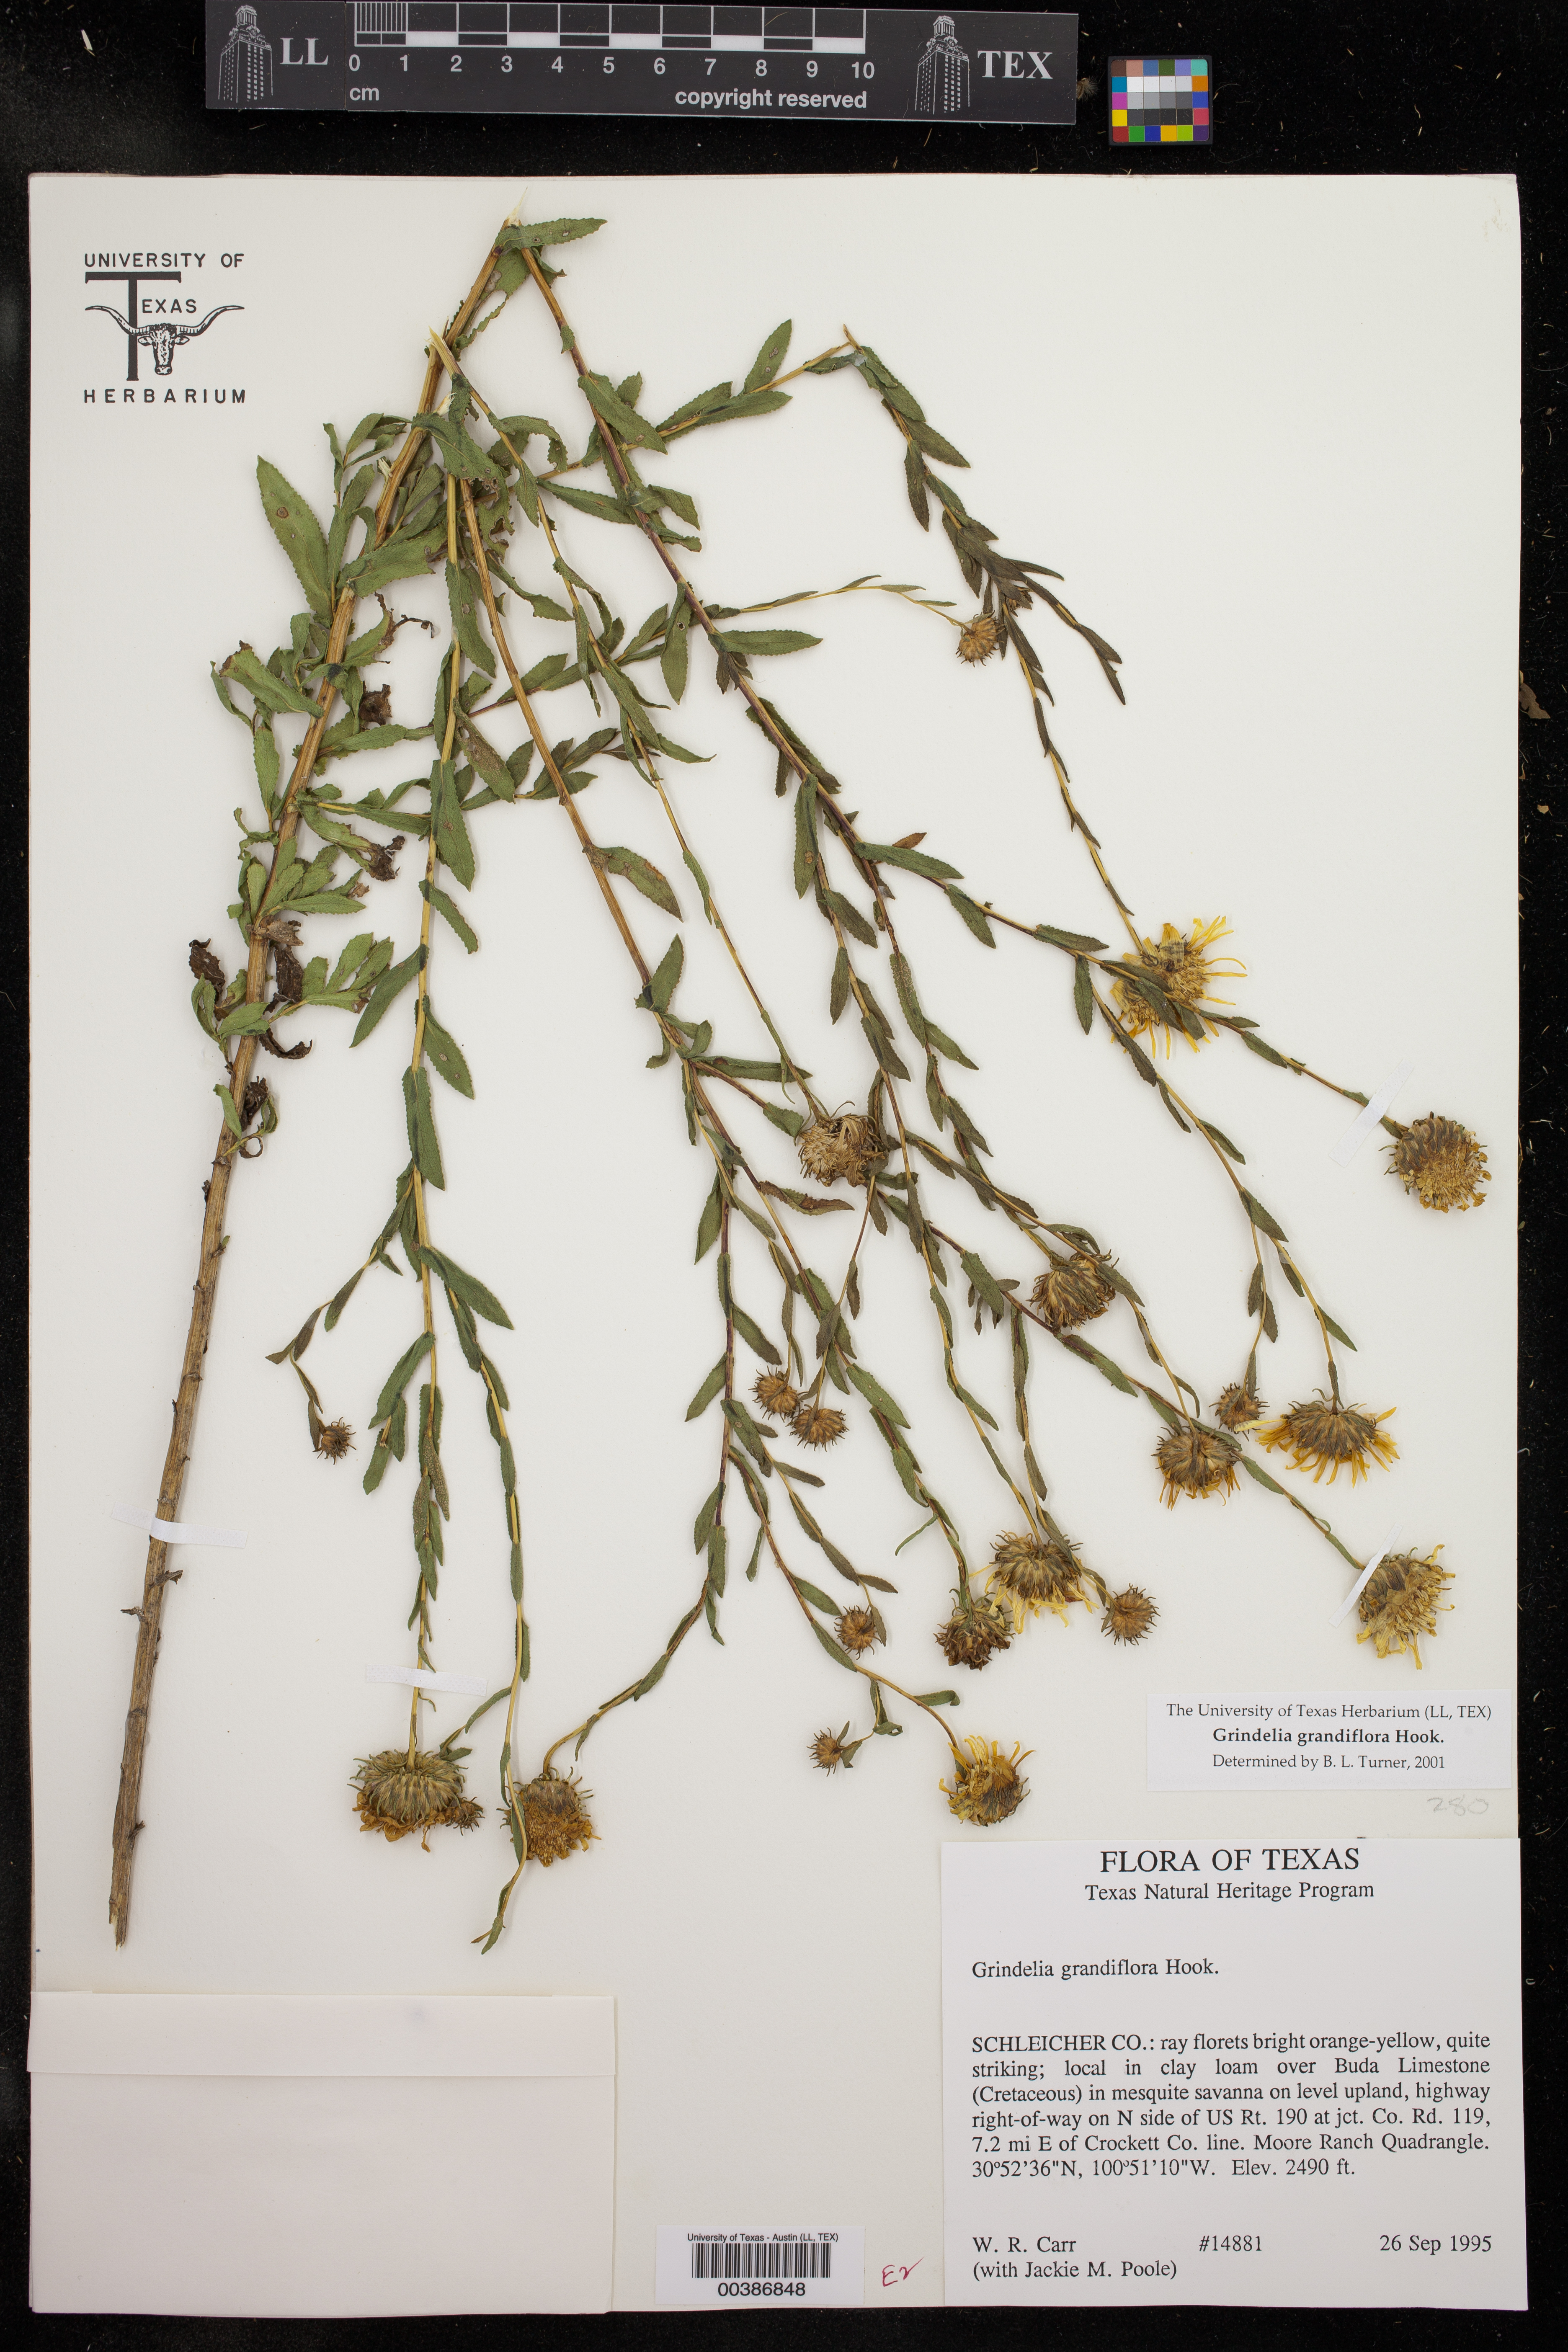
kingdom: Plantae
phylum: Tracheophyta
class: Magnoliopsida
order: Asterales
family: Asteraceae
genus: Grindelia
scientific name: Grindelia grandiflora
